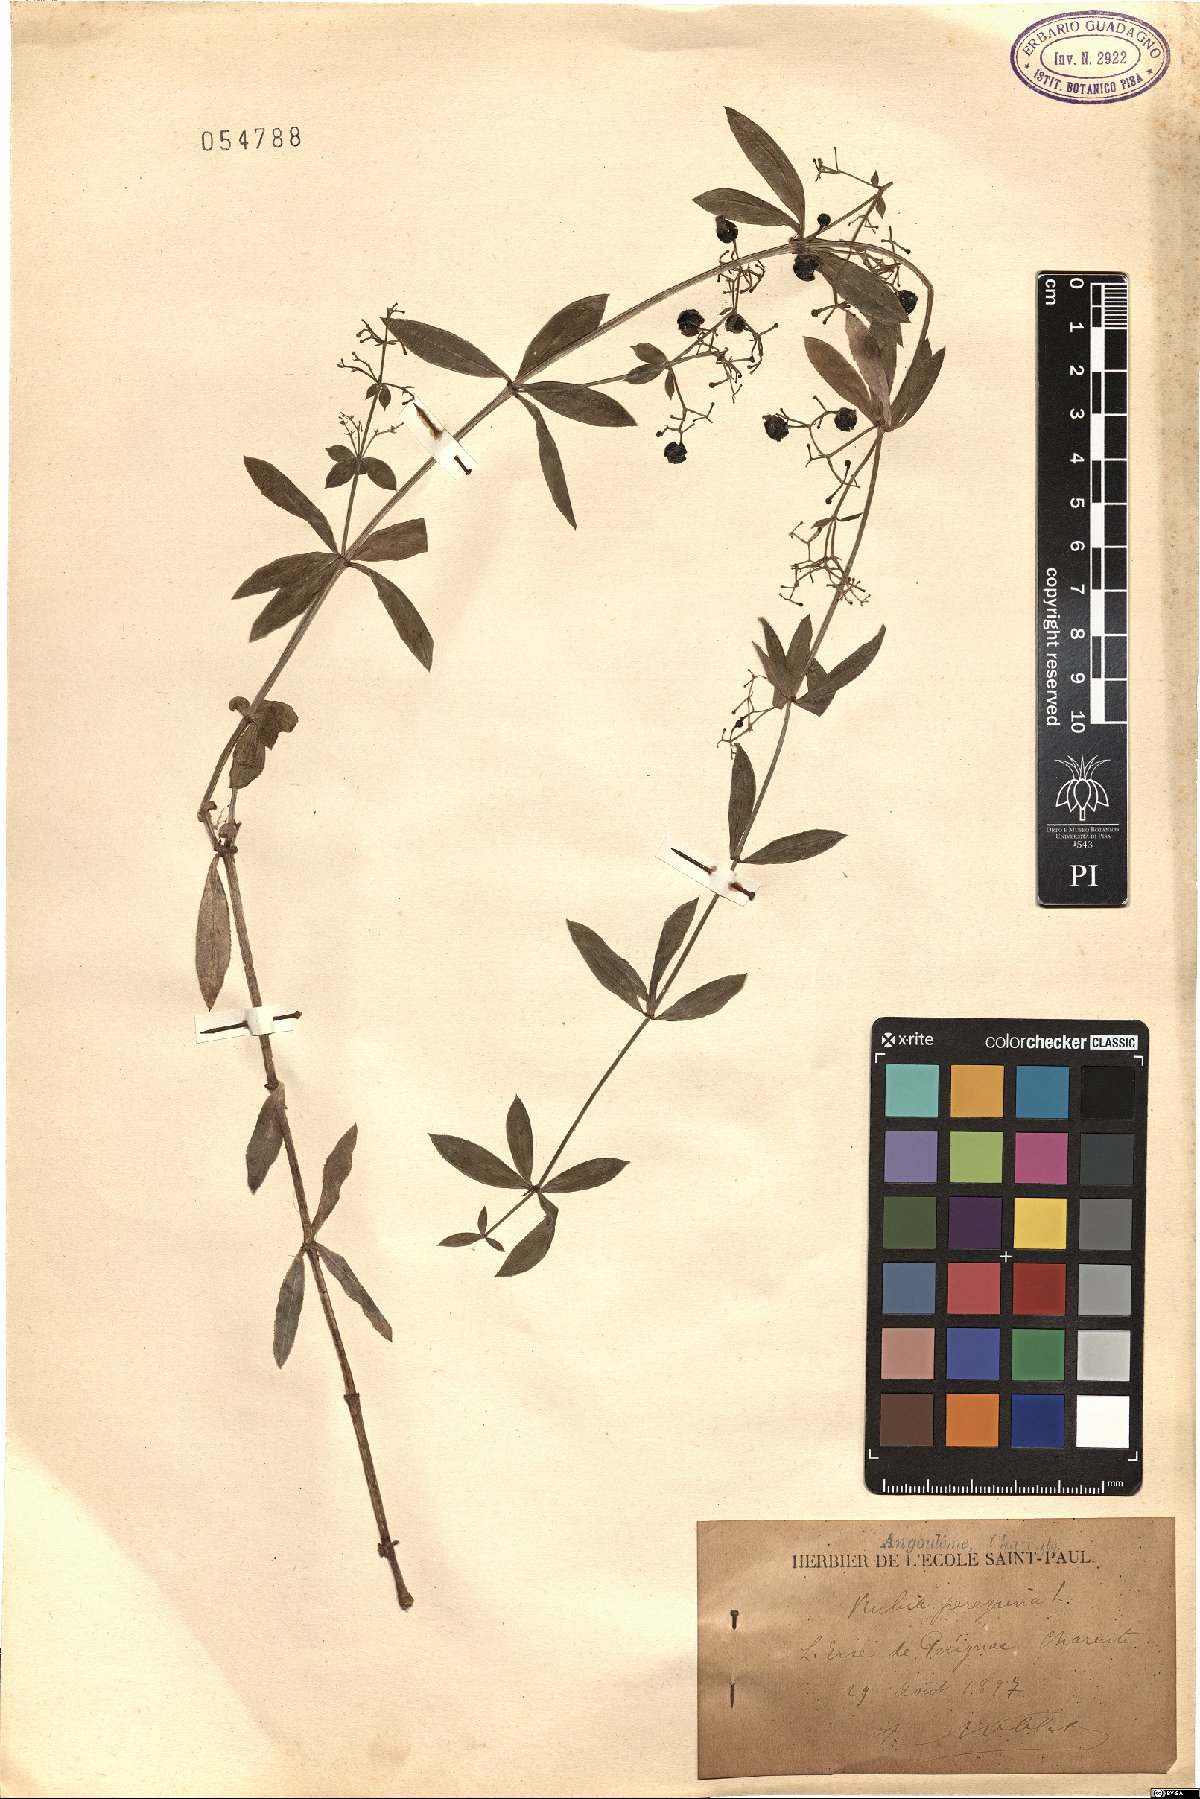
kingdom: Plantae
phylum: Tracheophyta
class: Magnoliopsida
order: Gentianales
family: Rubiaceae
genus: Rubia
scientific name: Rubia peregrina
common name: Wild madder
